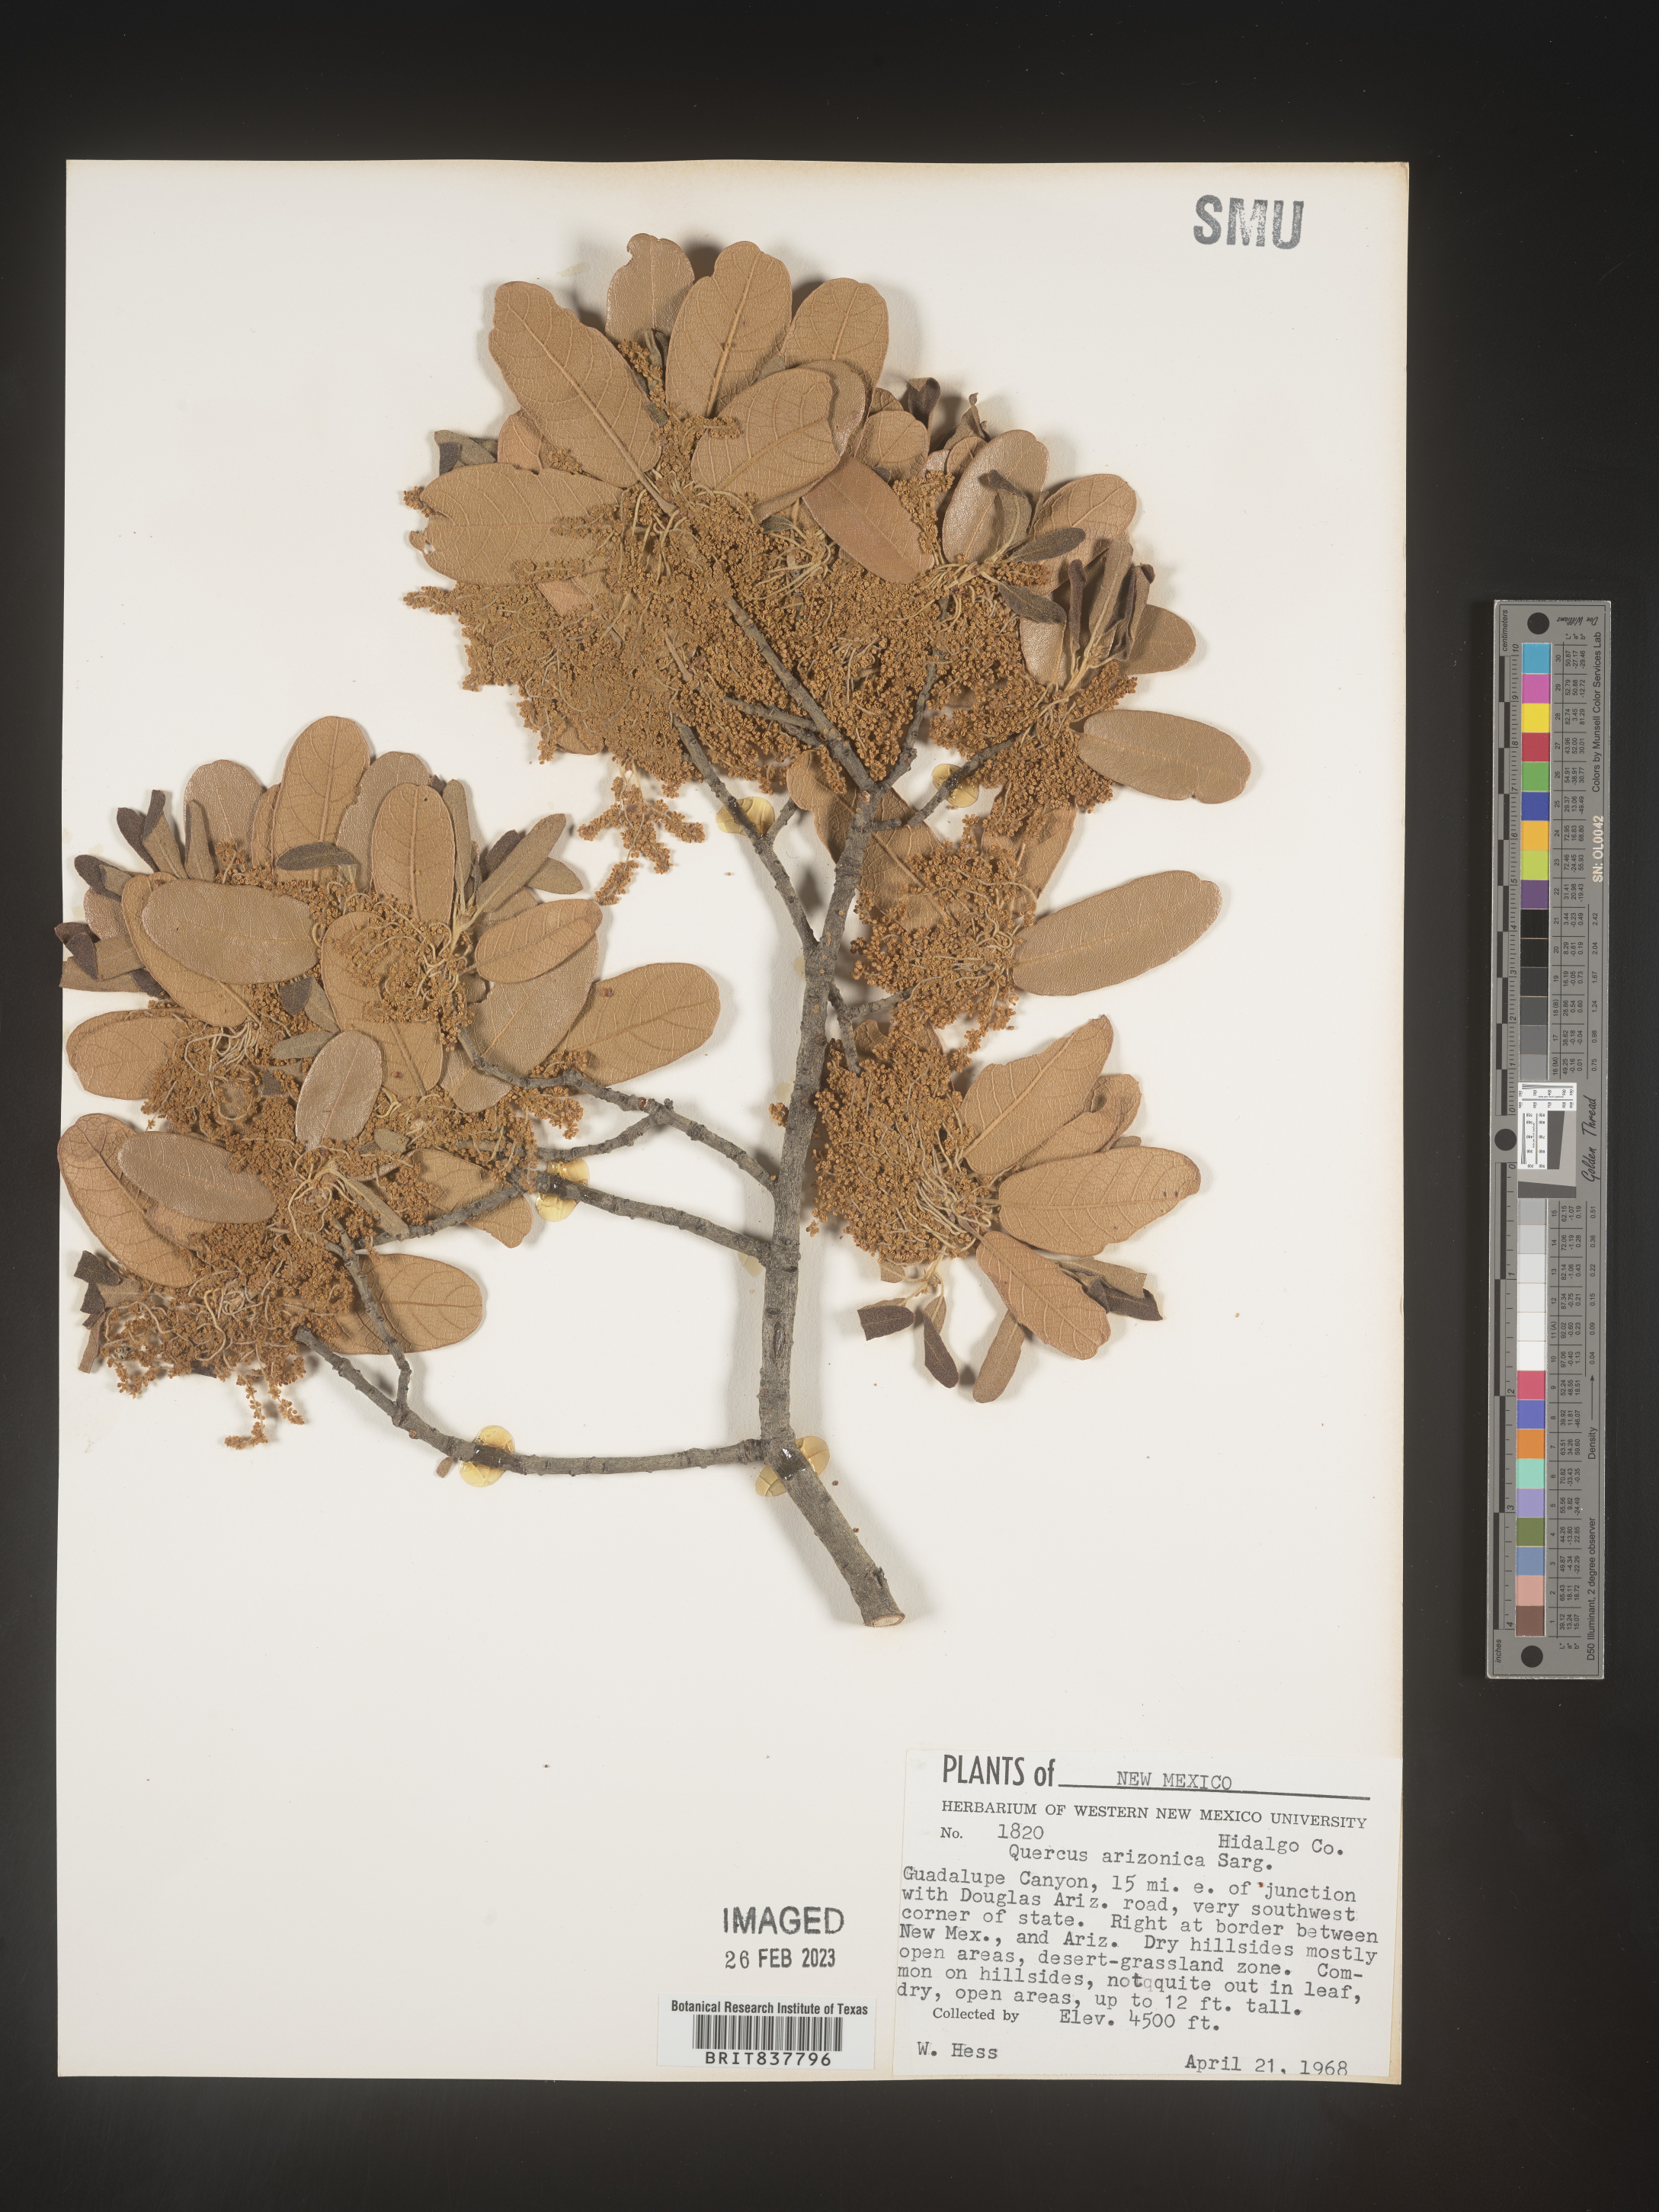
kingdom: Plantae
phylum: Tracheophyta
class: Magnoliopsida
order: Fagales
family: Fagaceae
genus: Quercus
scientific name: Quercus arizonica
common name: Arizona white oak
